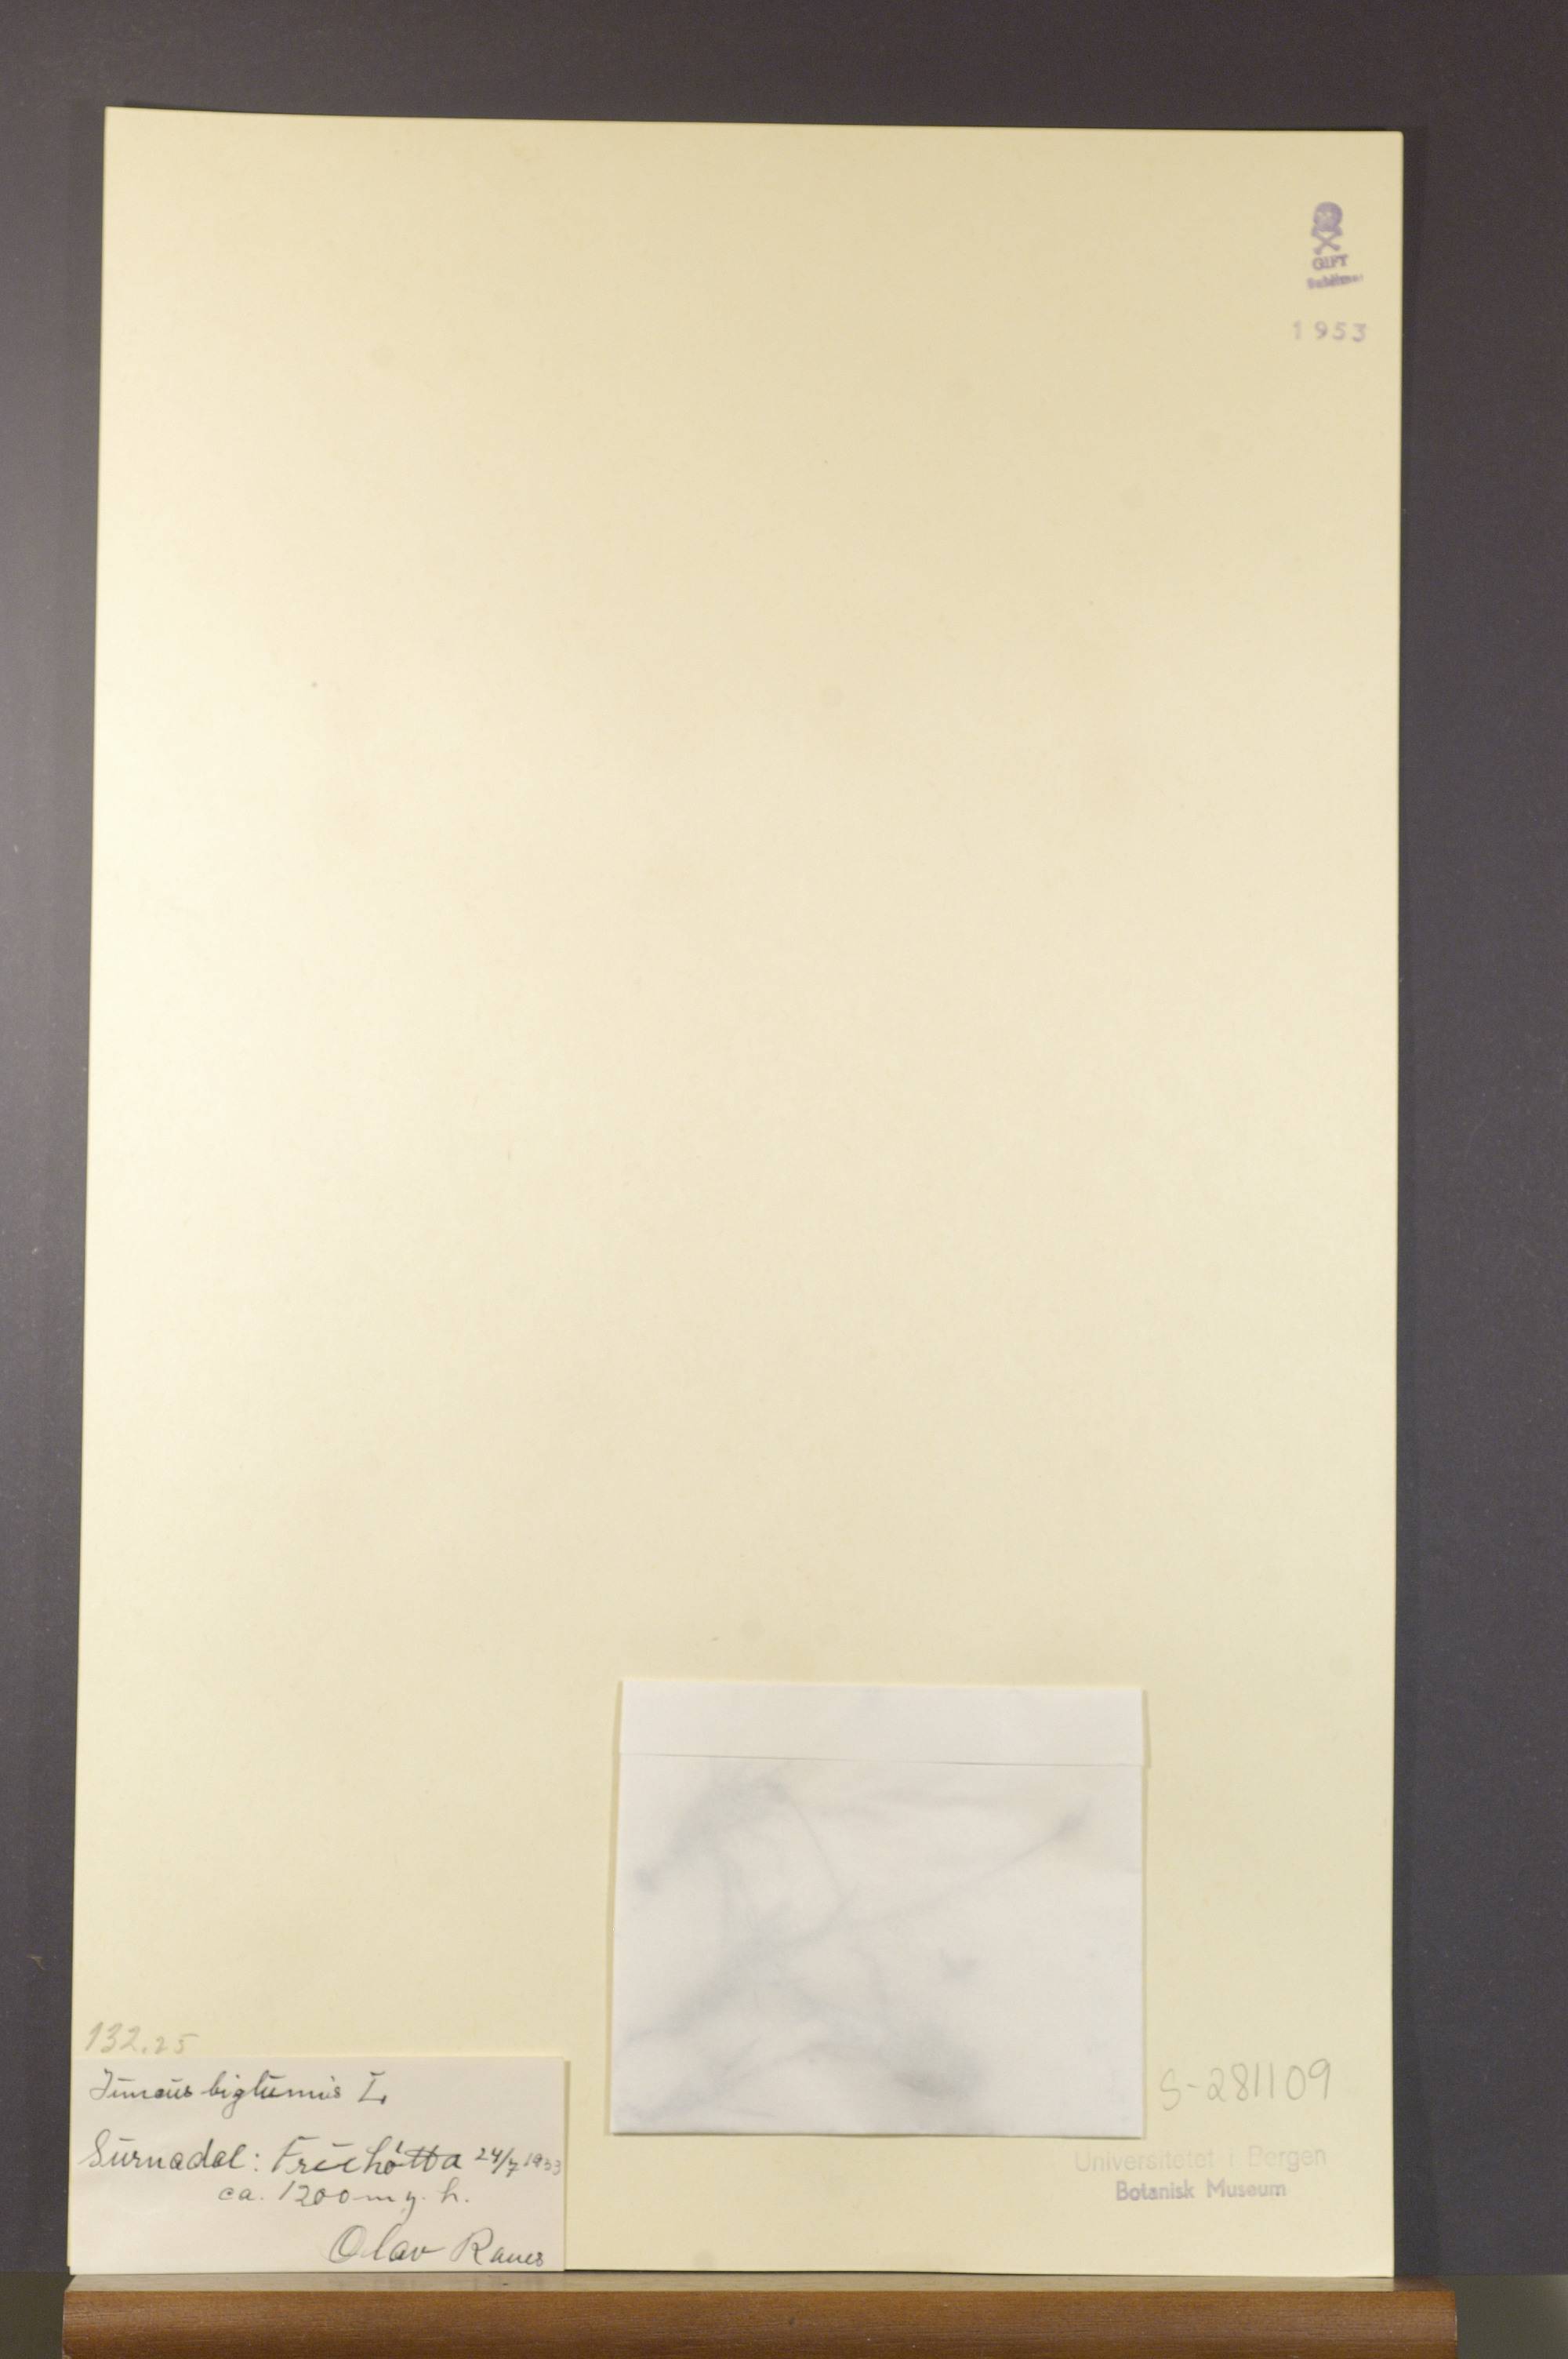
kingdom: Plantae
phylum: Tracheophyta
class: Liliopsida
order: Poales
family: Juncaceae
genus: Juncus
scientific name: Juncus biglumis
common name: Two-flowered rush
